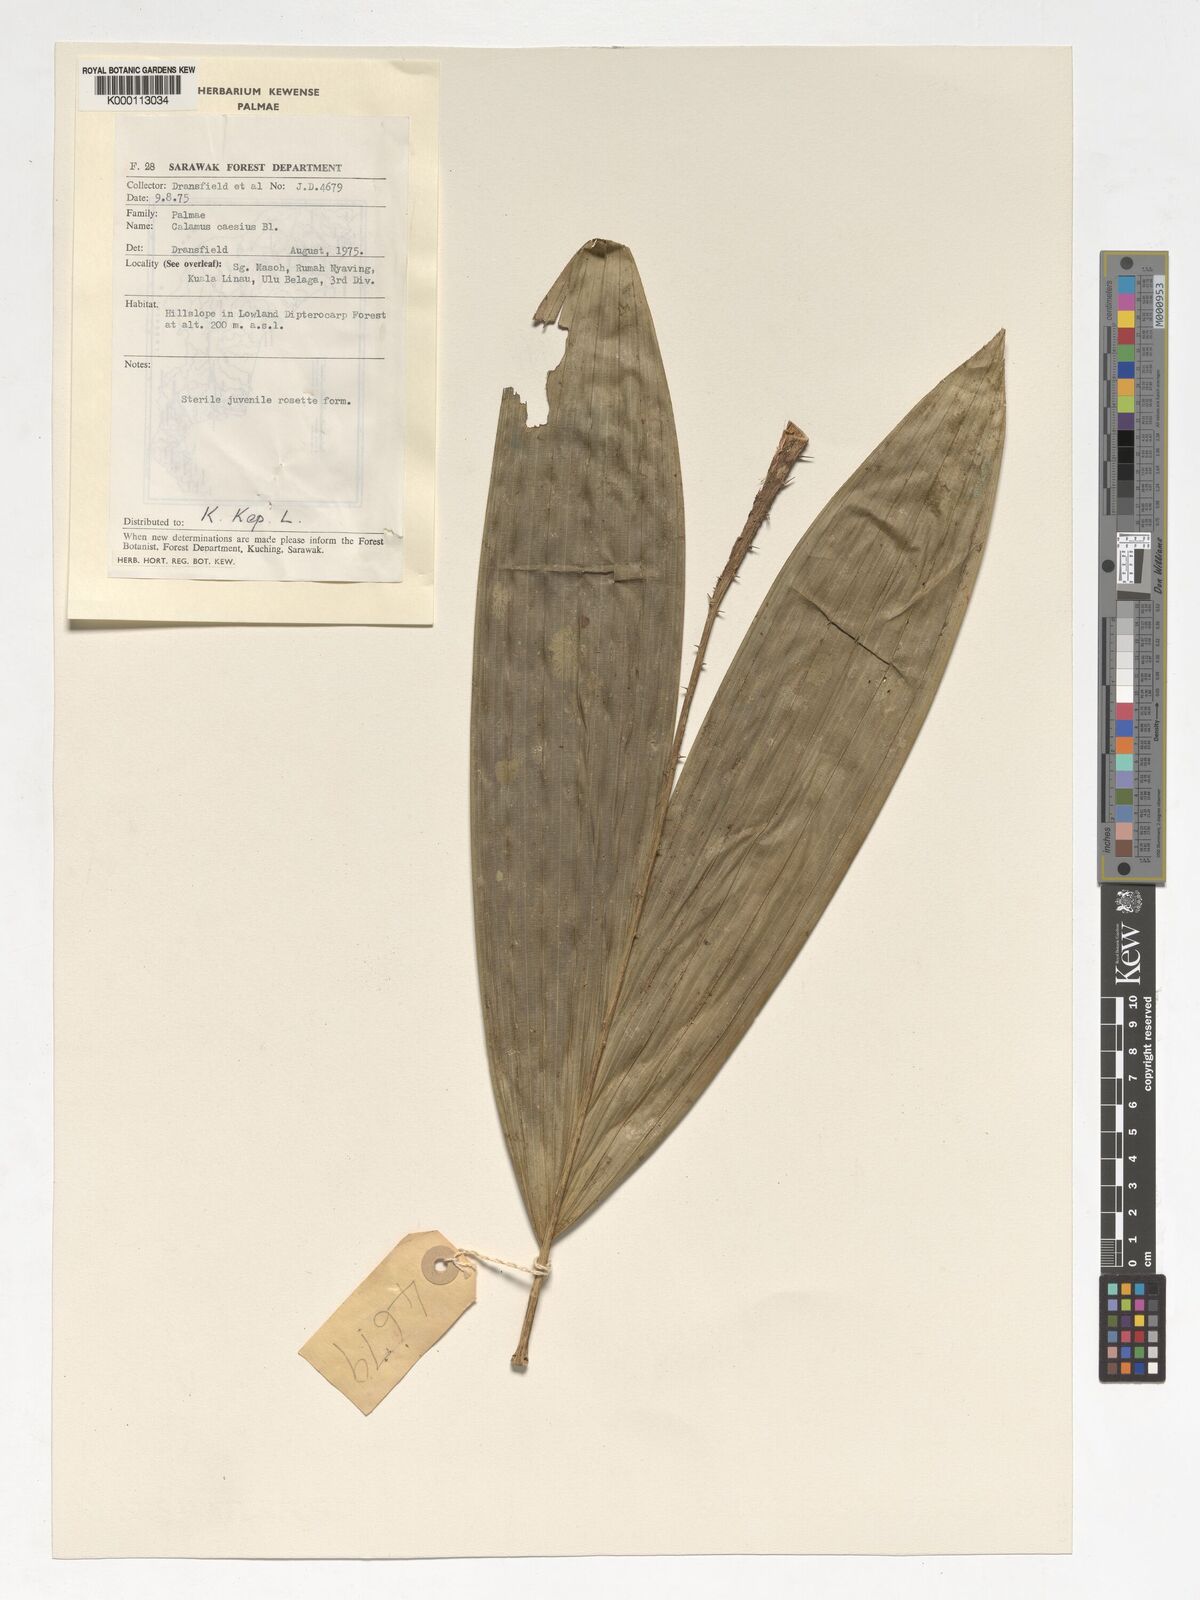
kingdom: Plantae
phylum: Tracheophyta
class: Liliopsida
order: Arecales
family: Arecaceae
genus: Calamus
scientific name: Calamus caesius
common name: Rattan palm
